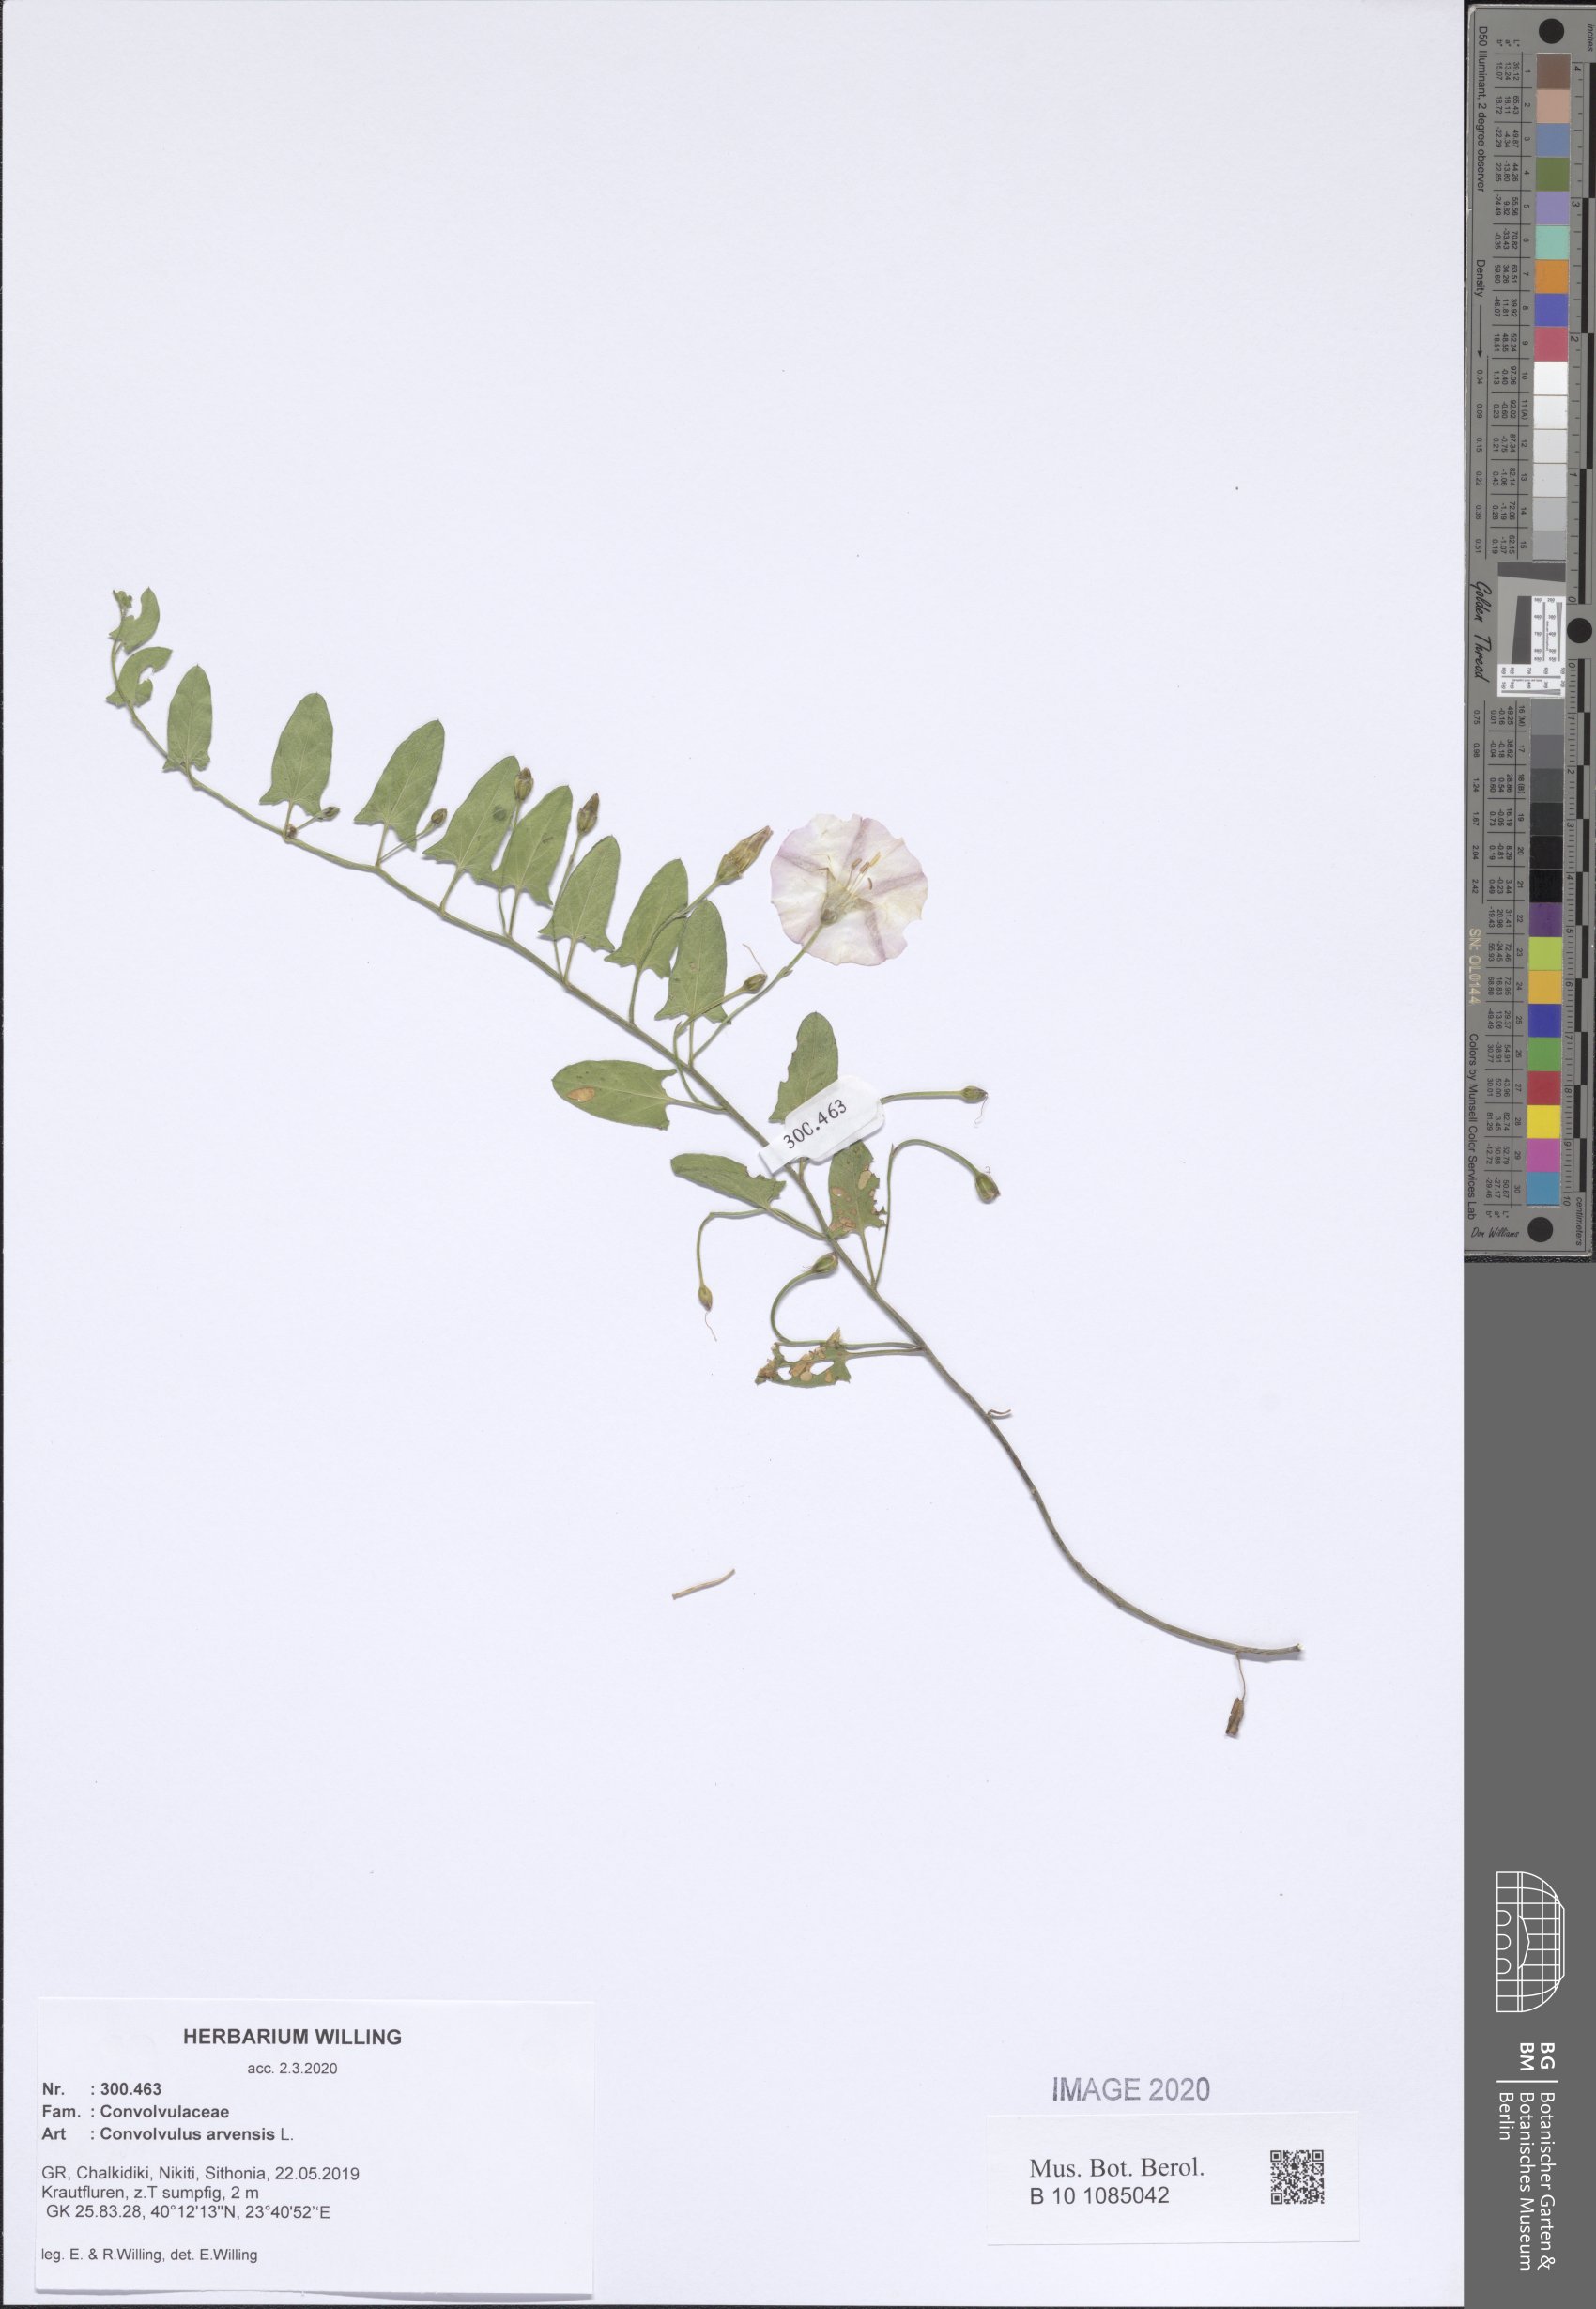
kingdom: Plantae
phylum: Tracheophyta
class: Magnoliopsida
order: Solanales
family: Convolvulaceae
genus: Convolvulus
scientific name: Convolvulus arvensis
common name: Field bindweed
